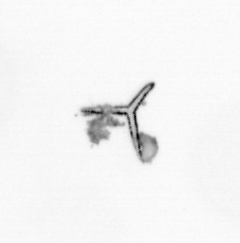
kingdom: Chromista
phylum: Ochrophyta
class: Bacillariophyceae
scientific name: Bacillariophyceae
